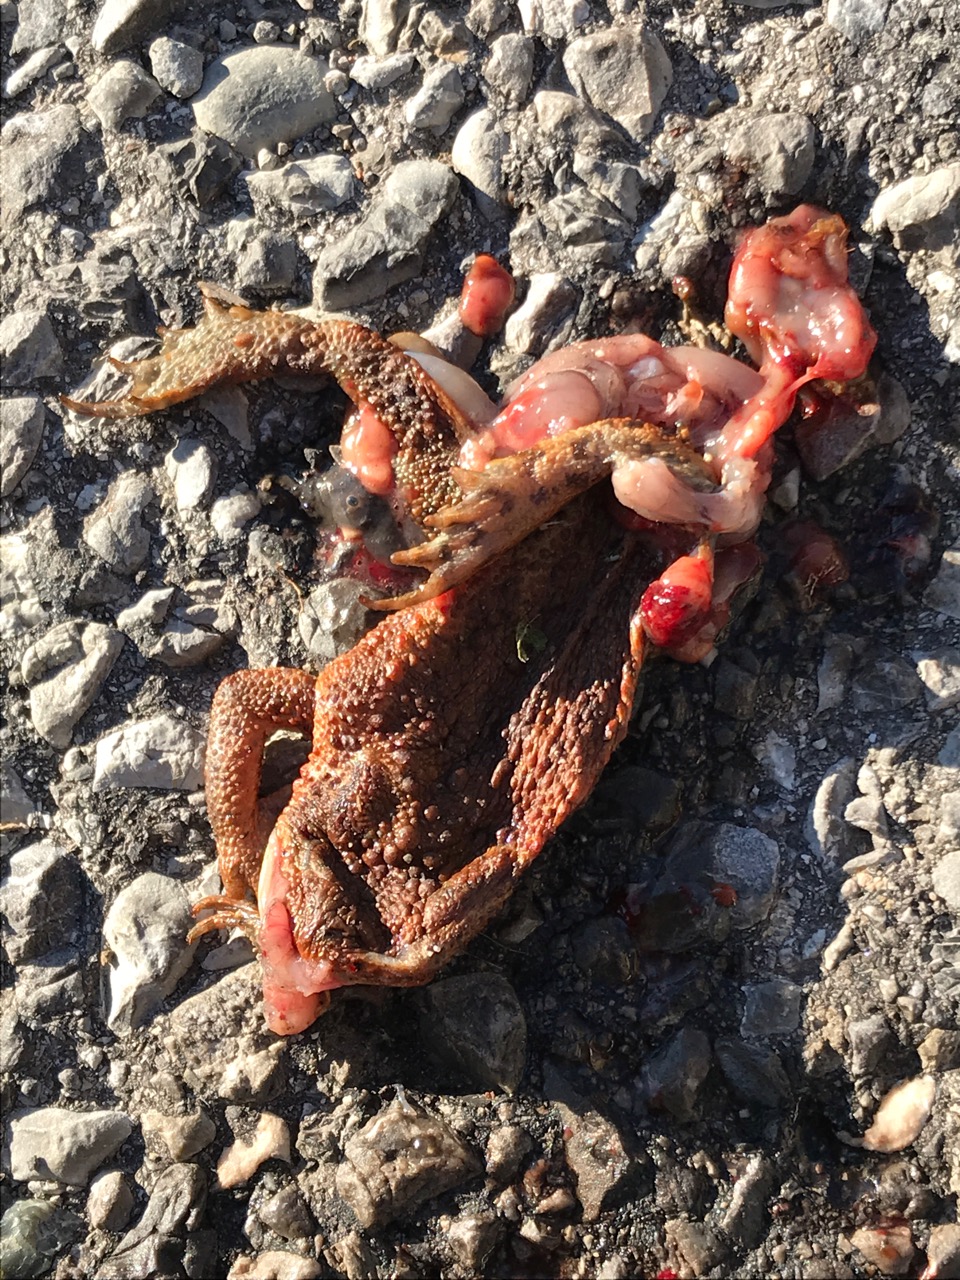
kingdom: Animalia
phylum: Chordata
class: Amphibia
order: Anura
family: Bufonidae
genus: Bufo
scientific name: Bufo bufo
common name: Common toad
